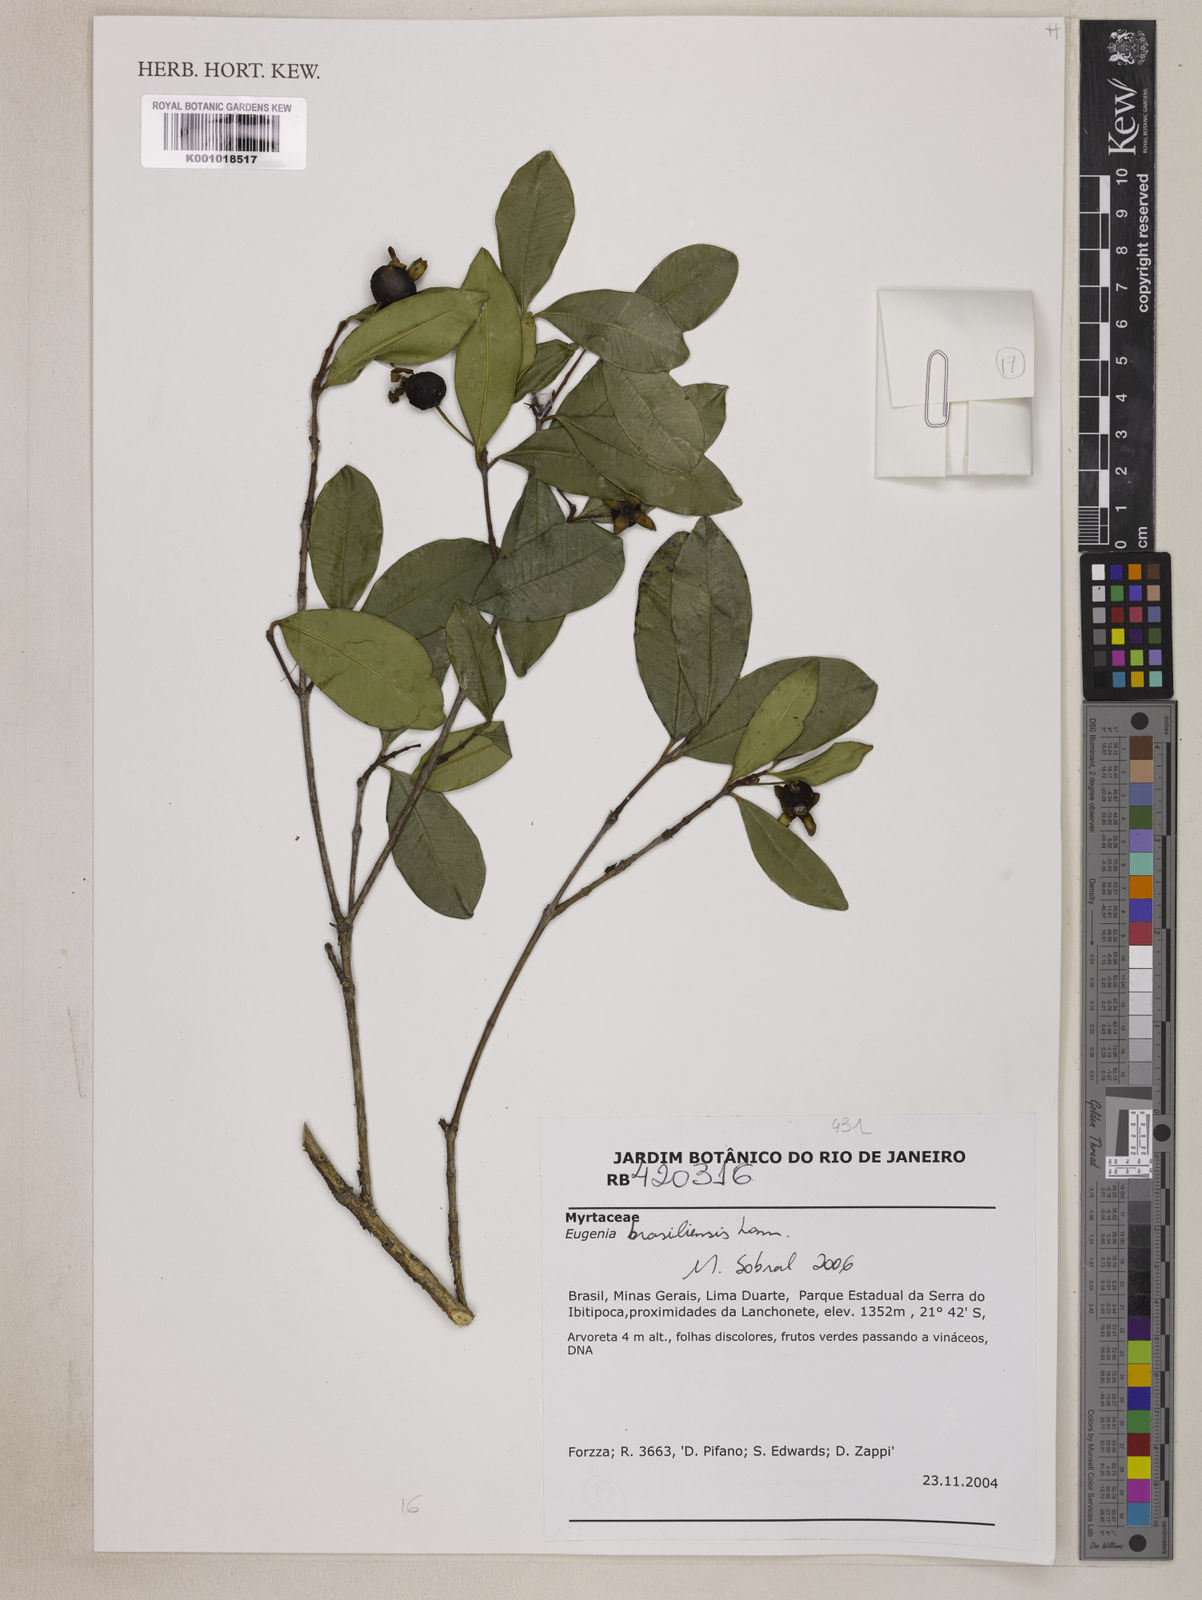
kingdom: Plantae
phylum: Tracheophyta
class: Magnoliopsida
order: Myrtales
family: Myrtaceae
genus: Eugenia
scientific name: Eugenia brasiliensis
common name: Grumichama
